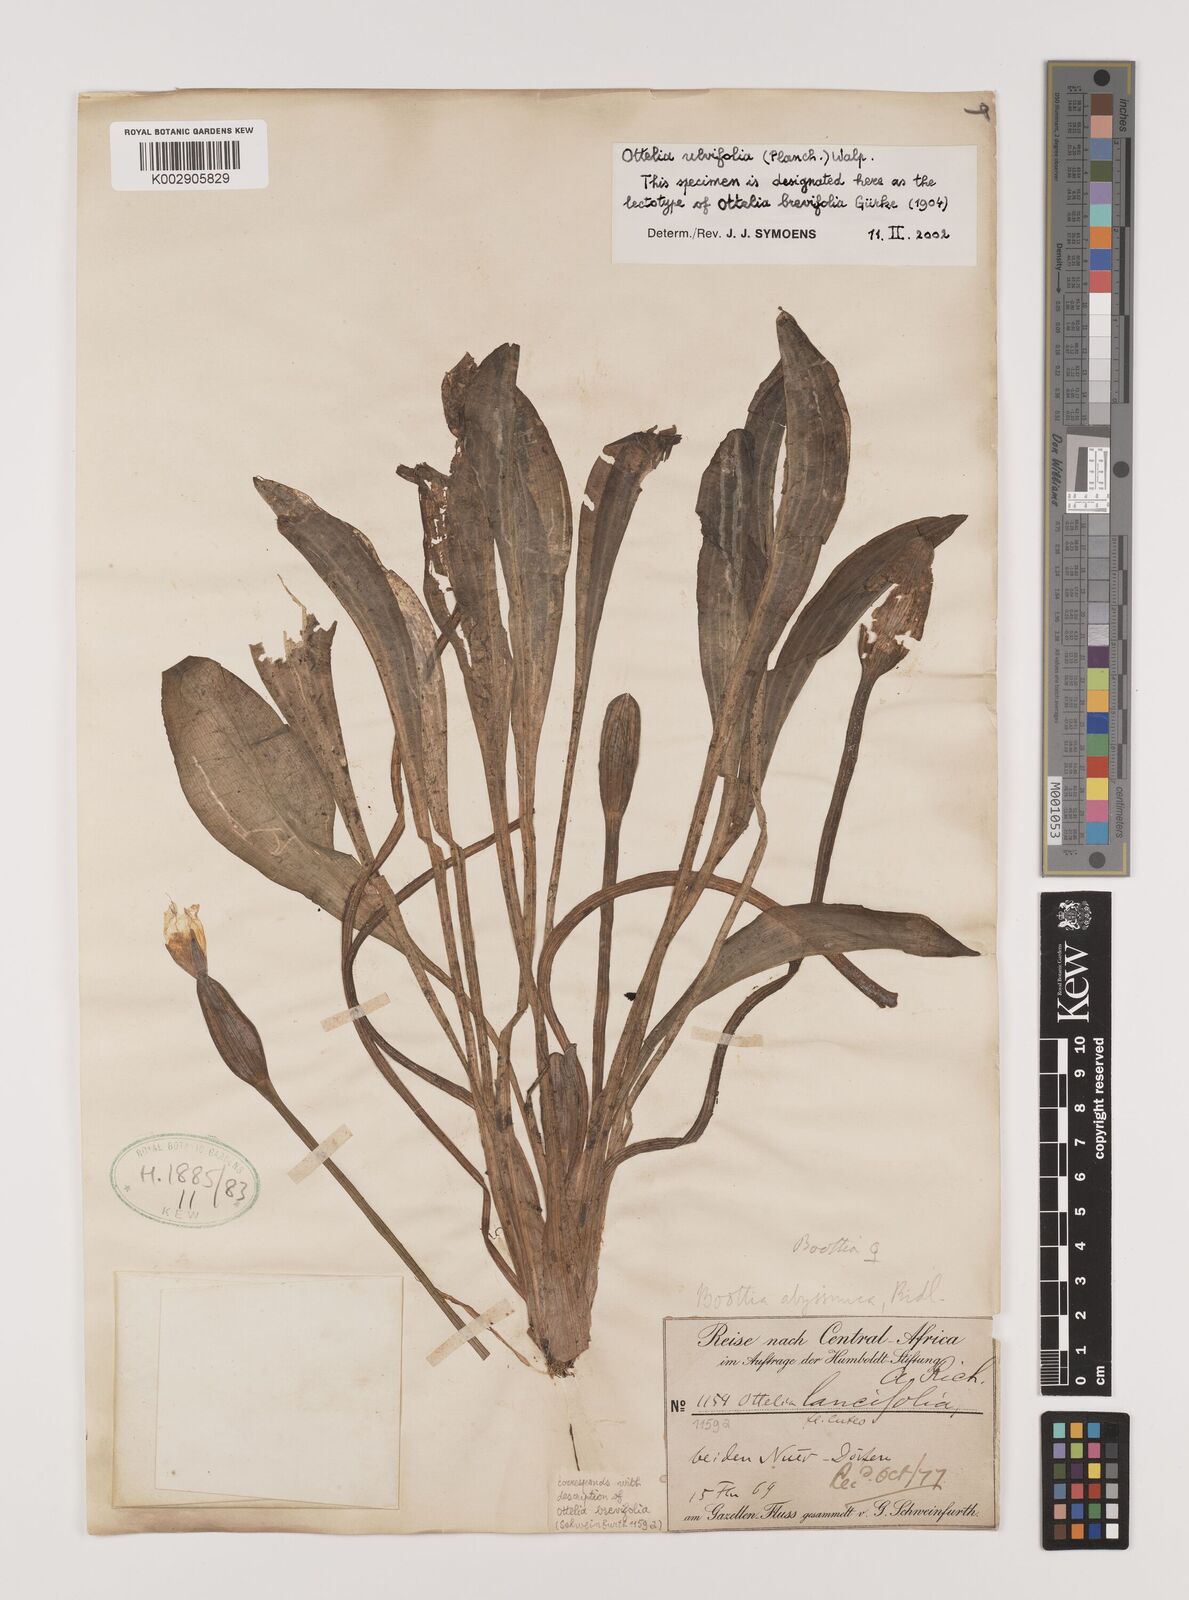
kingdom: Plantae
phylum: Tracheophyta
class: Liliopsida
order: Alismatales
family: Hydrocharitaceae
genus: Ottelia
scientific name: Ottelia ulvifolia
